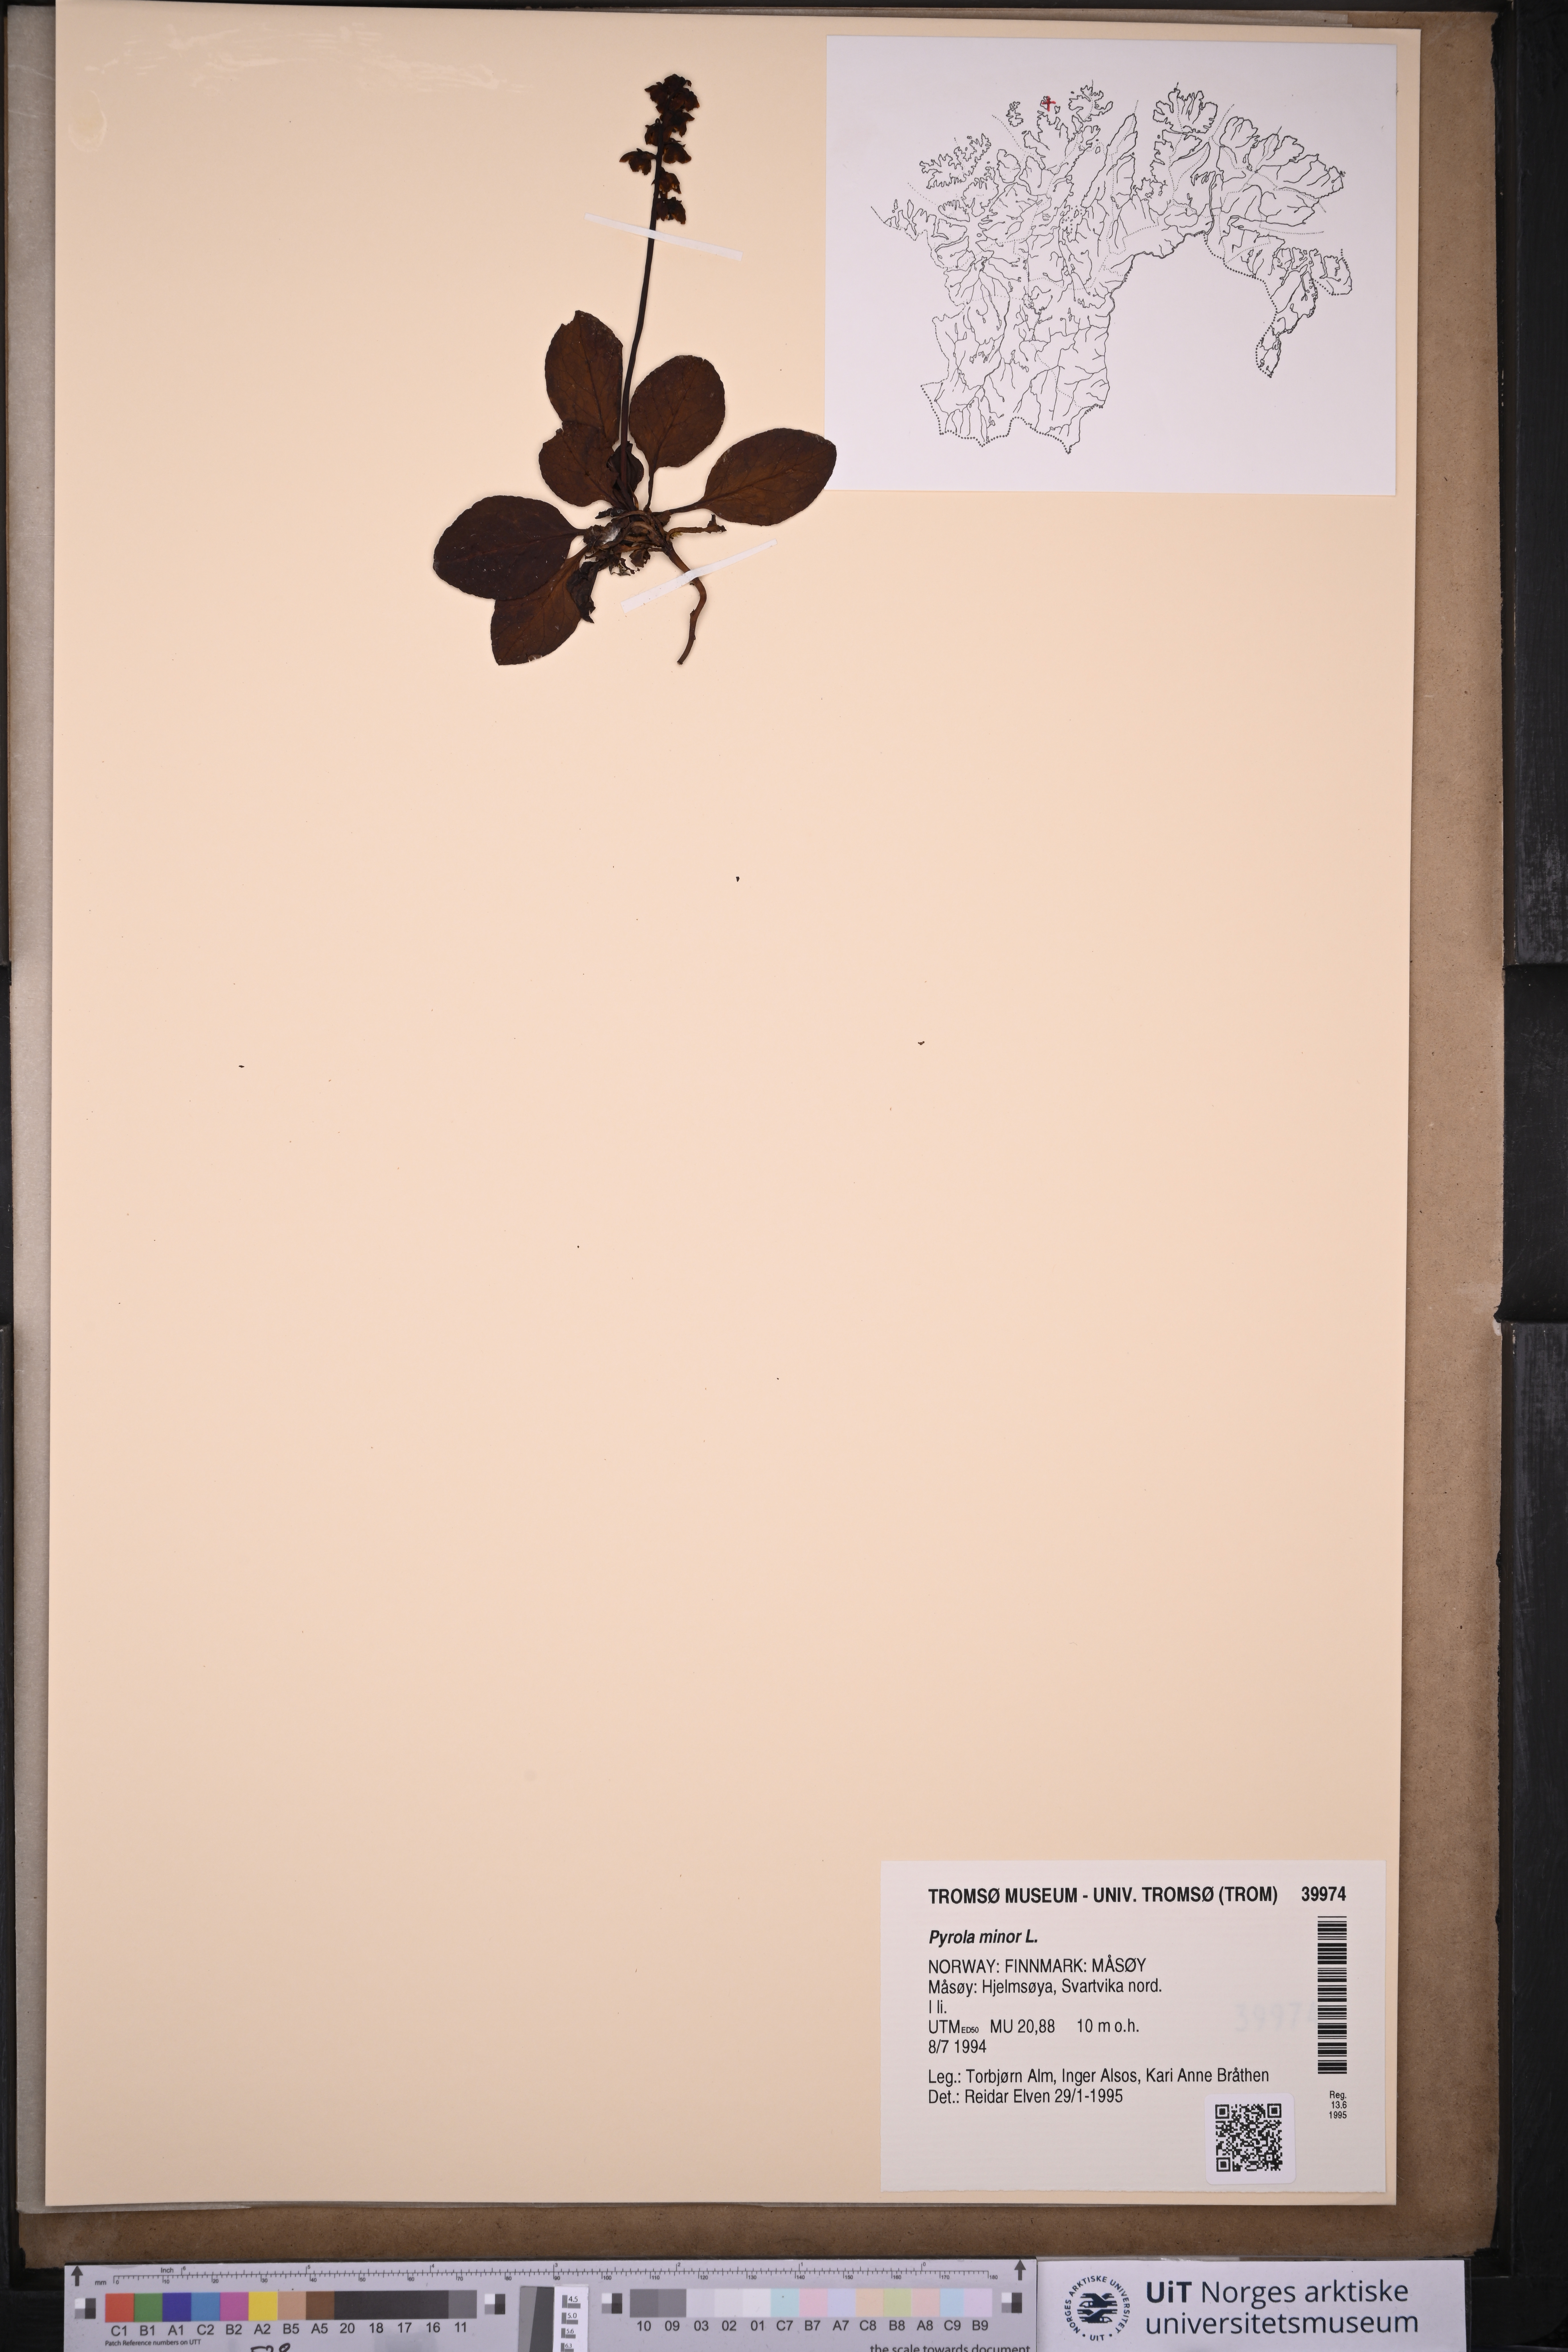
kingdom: Plantae
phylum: Tracheophyta
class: Magnoliopsida
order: Ericales
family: Ericaceae
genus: Pyrola
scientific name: Pyrola minor
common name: Common wintergreen
